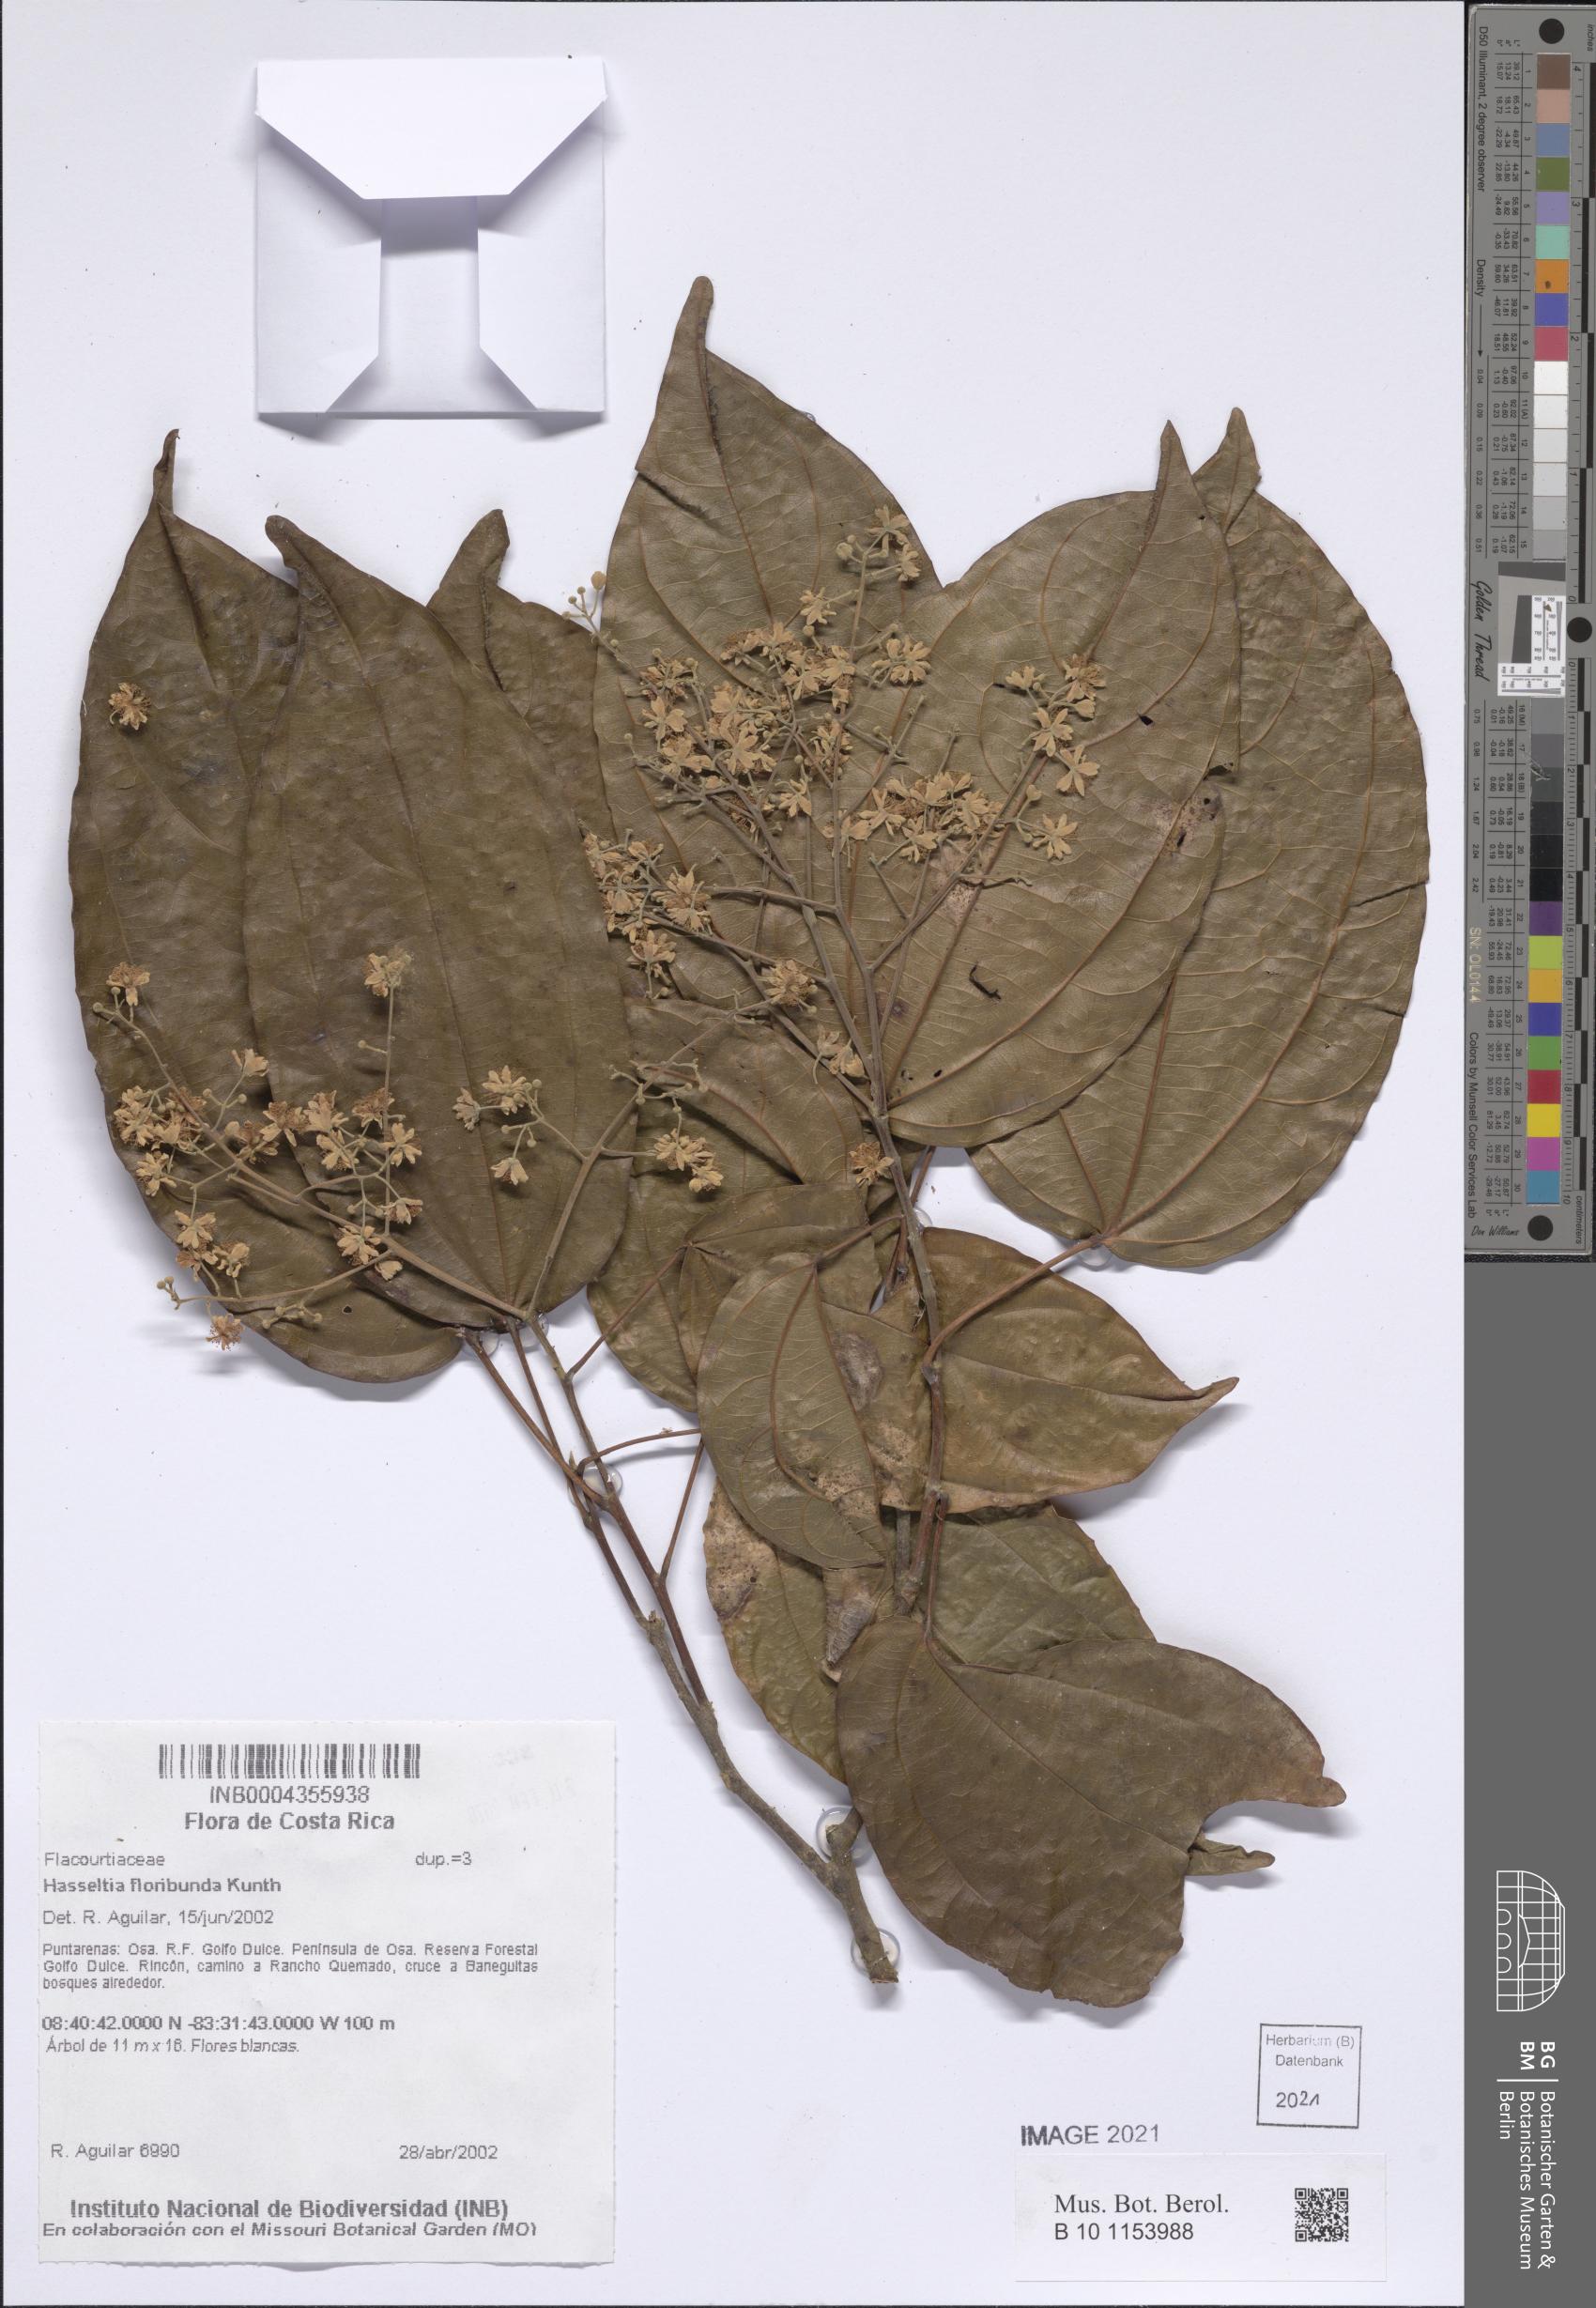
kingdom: Plantae
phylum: Tracheophyta
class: Magnoliopsida
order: Malpighiales
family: Salicaceae
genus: Hasseltia
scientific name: Hasseltia floribunda
